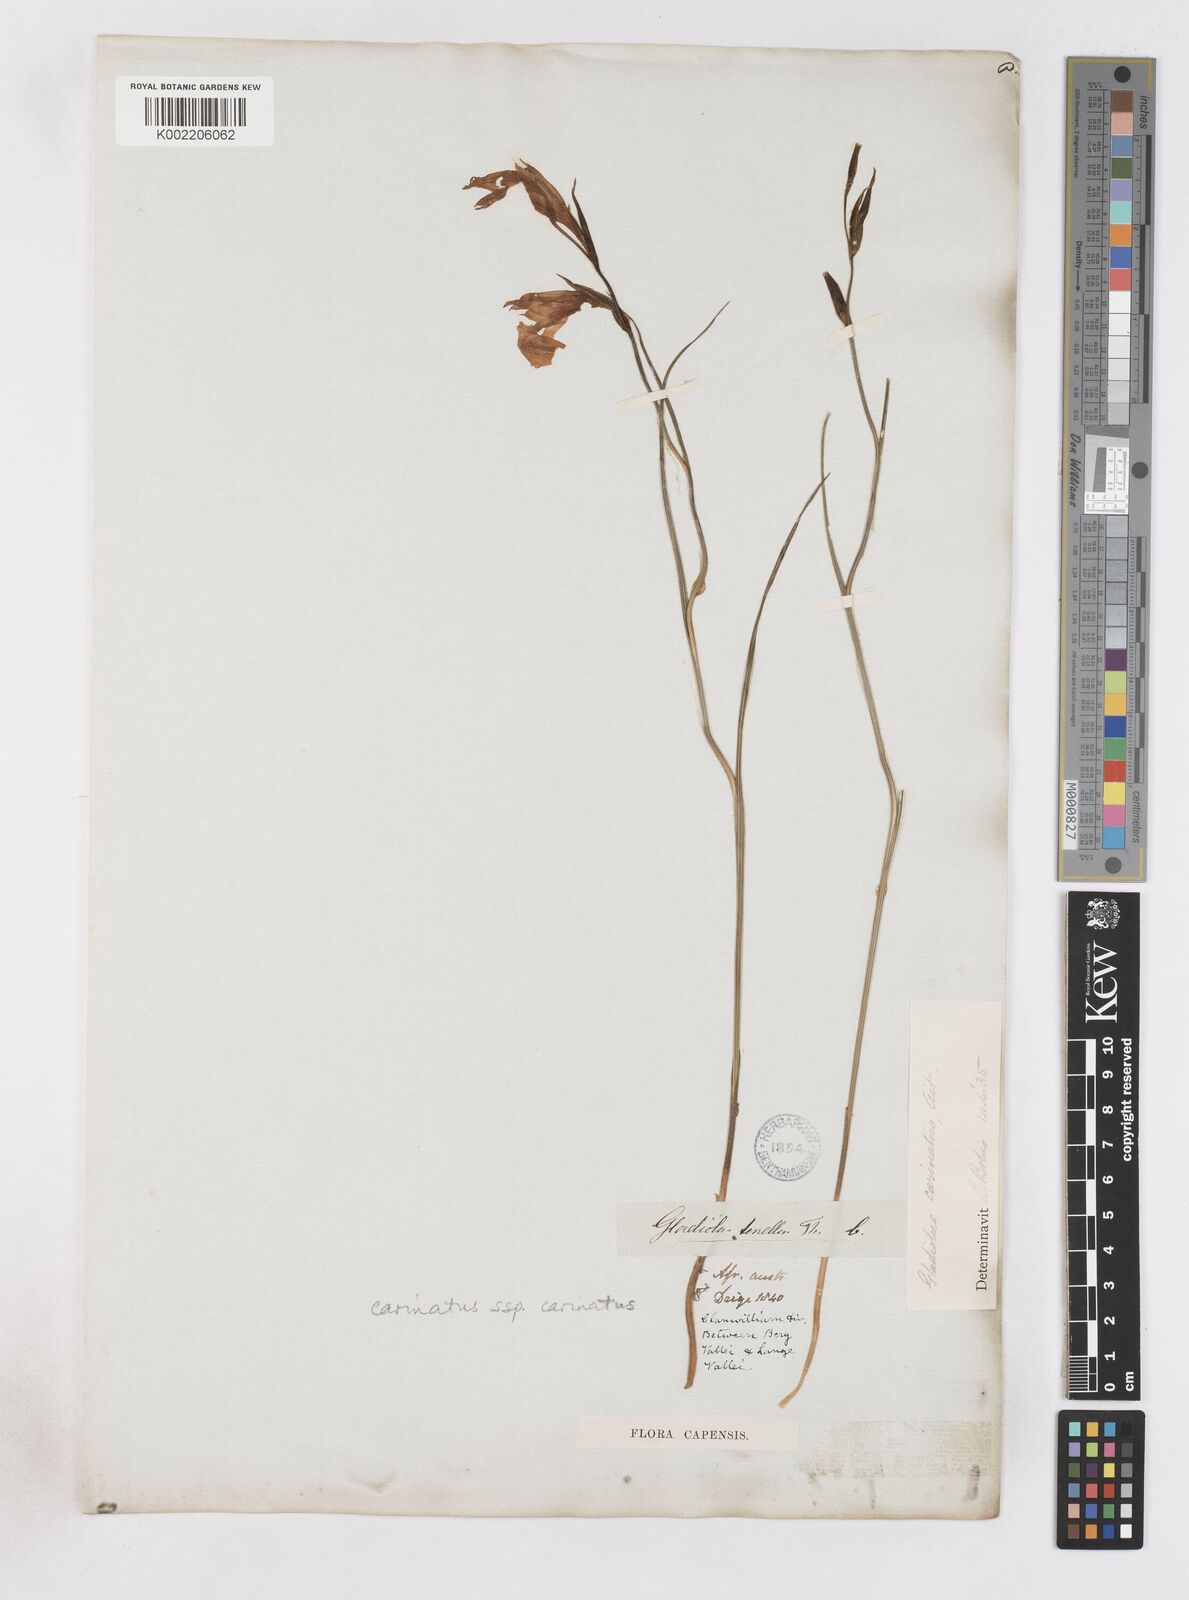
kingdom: Plantae
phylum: Tracheophyta
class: Liliopsida
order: Asparagales
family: Iridaceae
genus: Gladiolus
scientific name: Gladiolus carinatus
